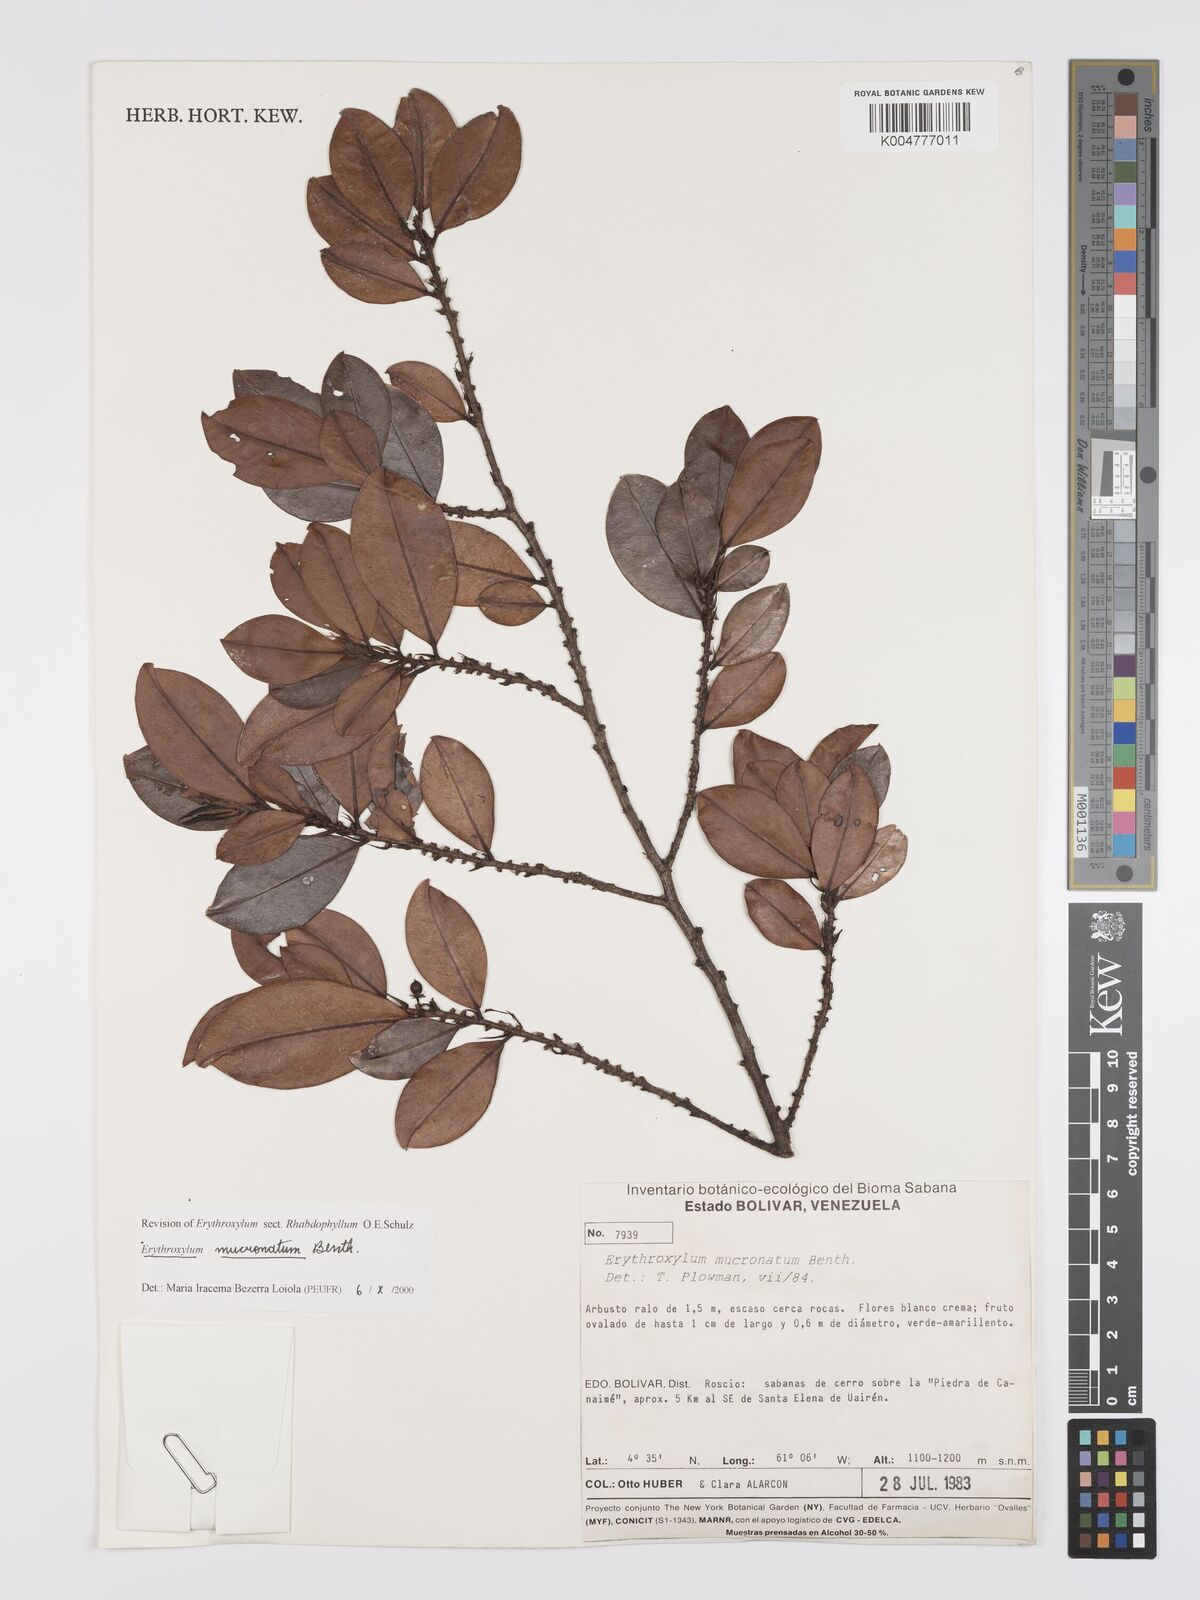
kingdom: Plantae
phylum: Tracheophyta
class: Magnoliopsida
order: Malpighiales
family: Erythroxylaceae
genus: Erythroxylum
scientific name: Erythroxylum mucronatum
